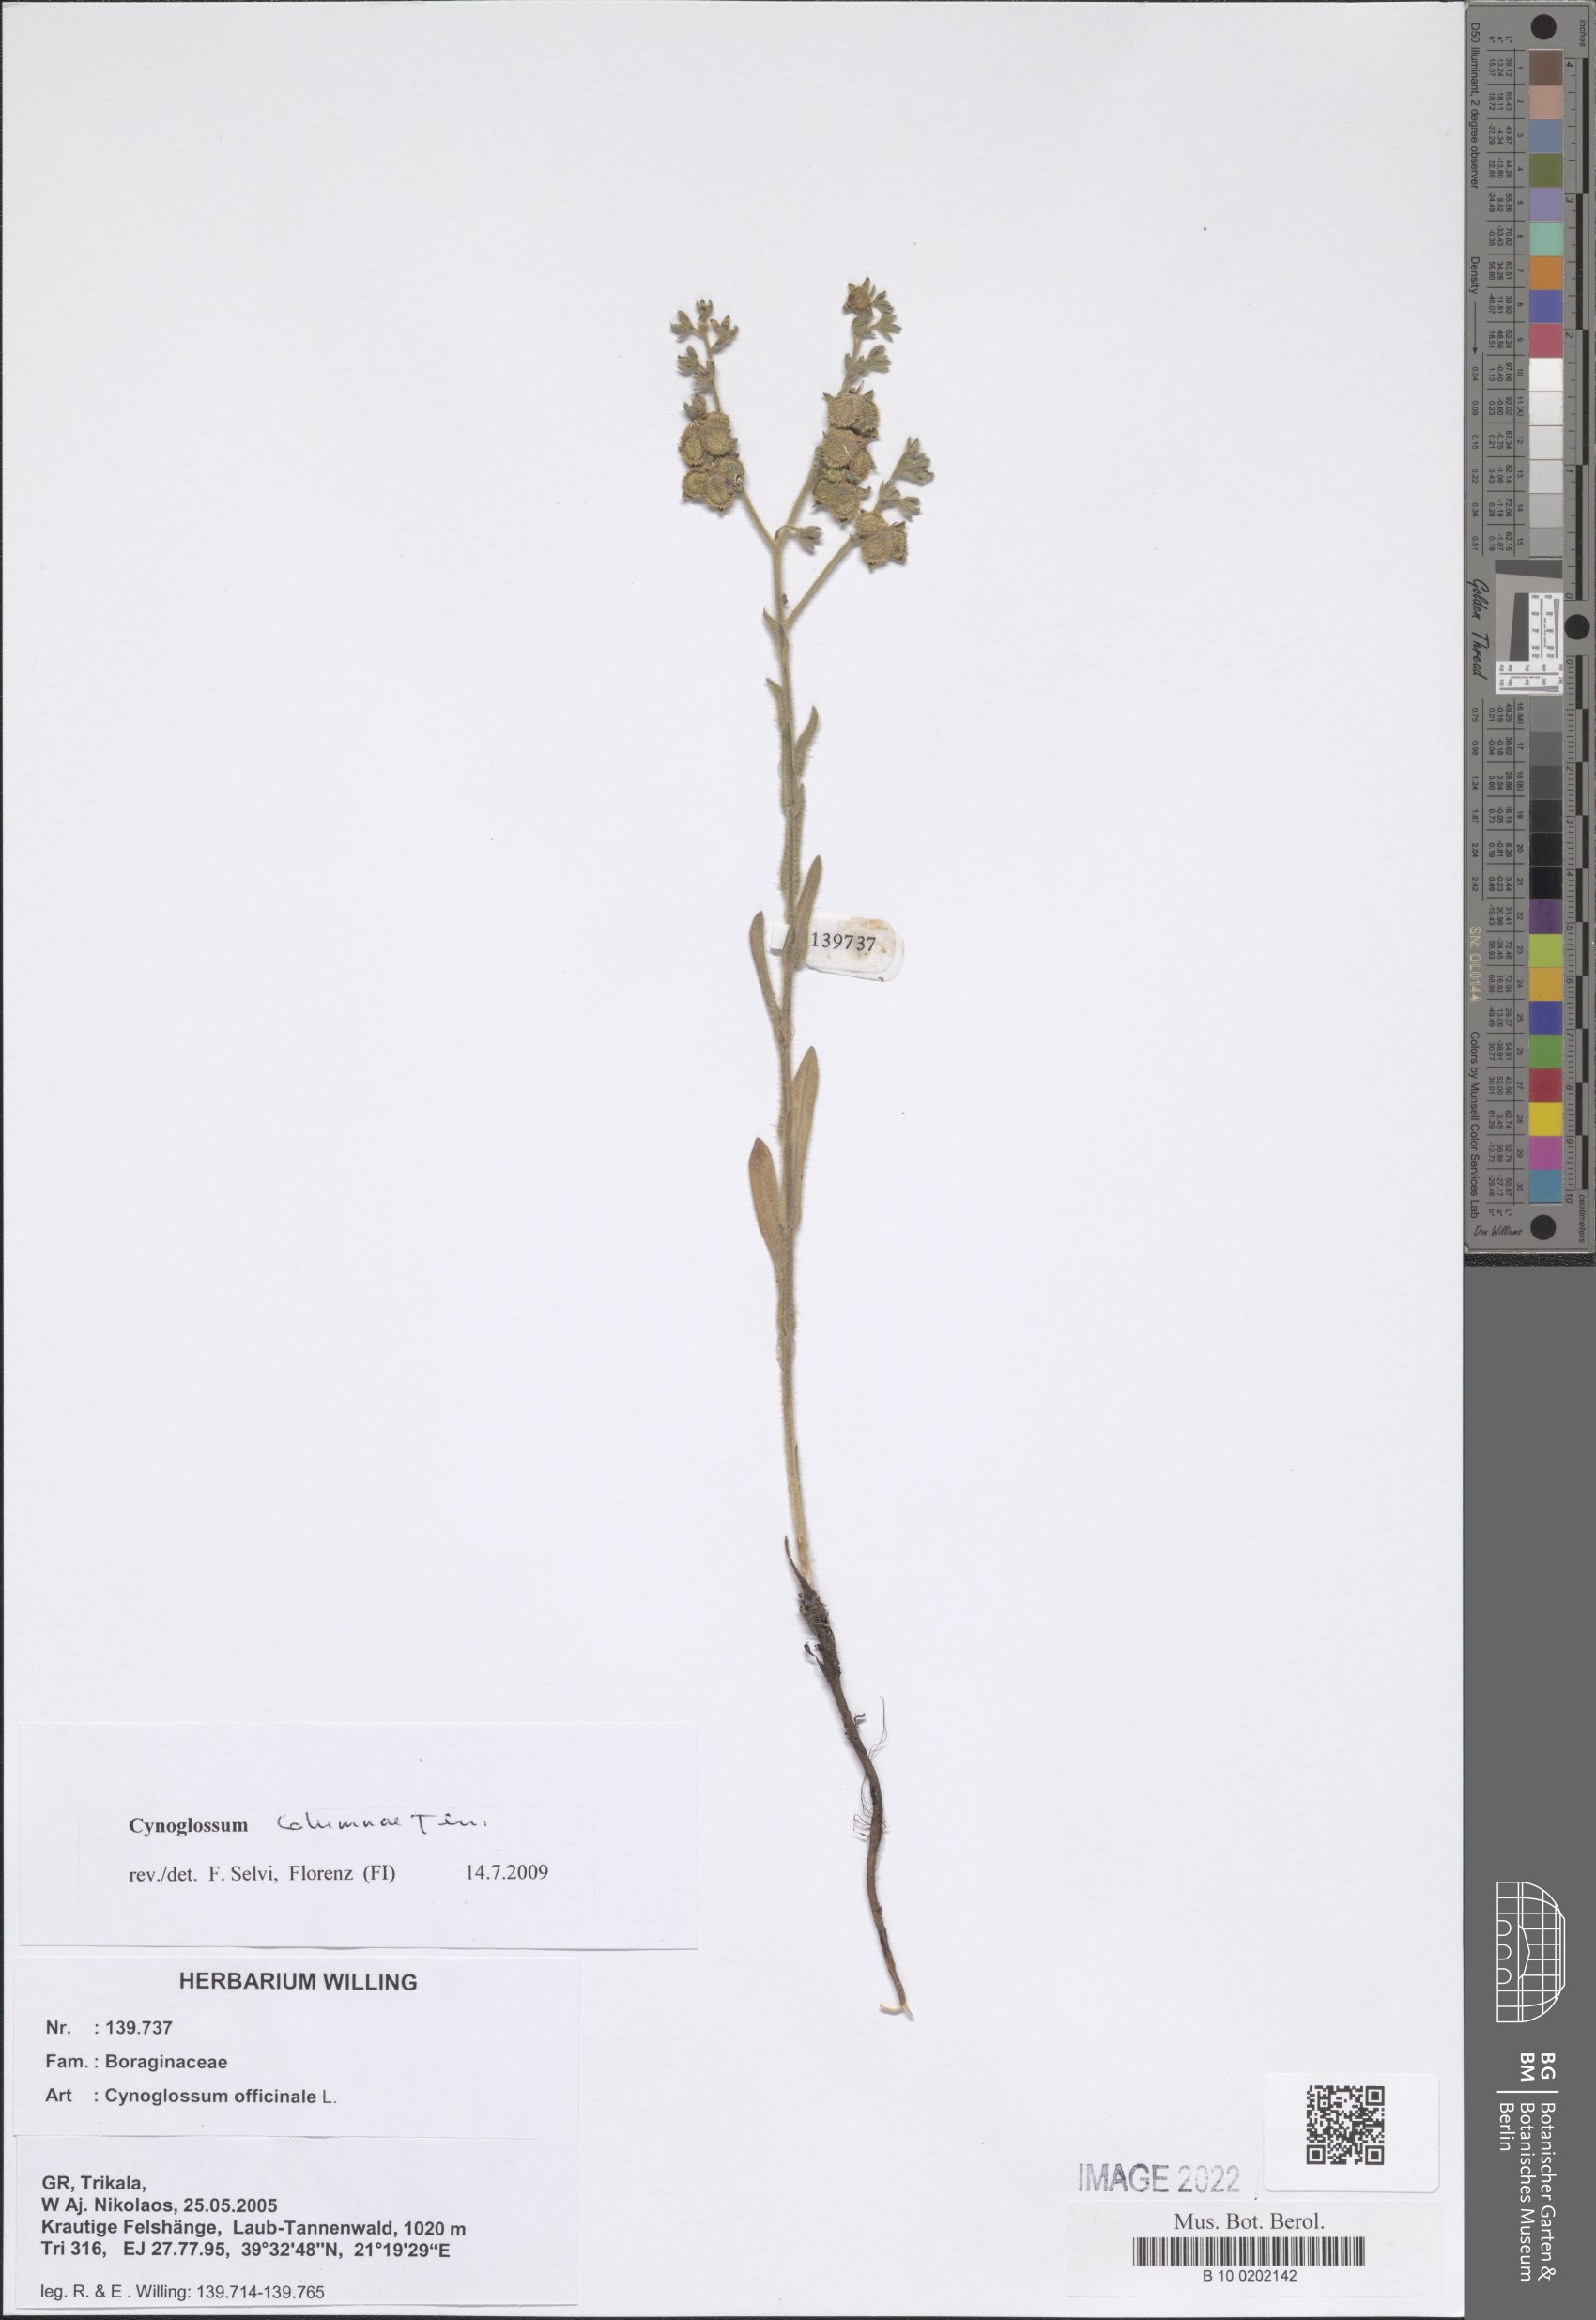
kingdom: Plantae
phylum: Tracheophyta
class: Magnoliopsida
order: Boraginales
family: Boraginaceae
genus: Rindera
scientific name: Rindera columnae
